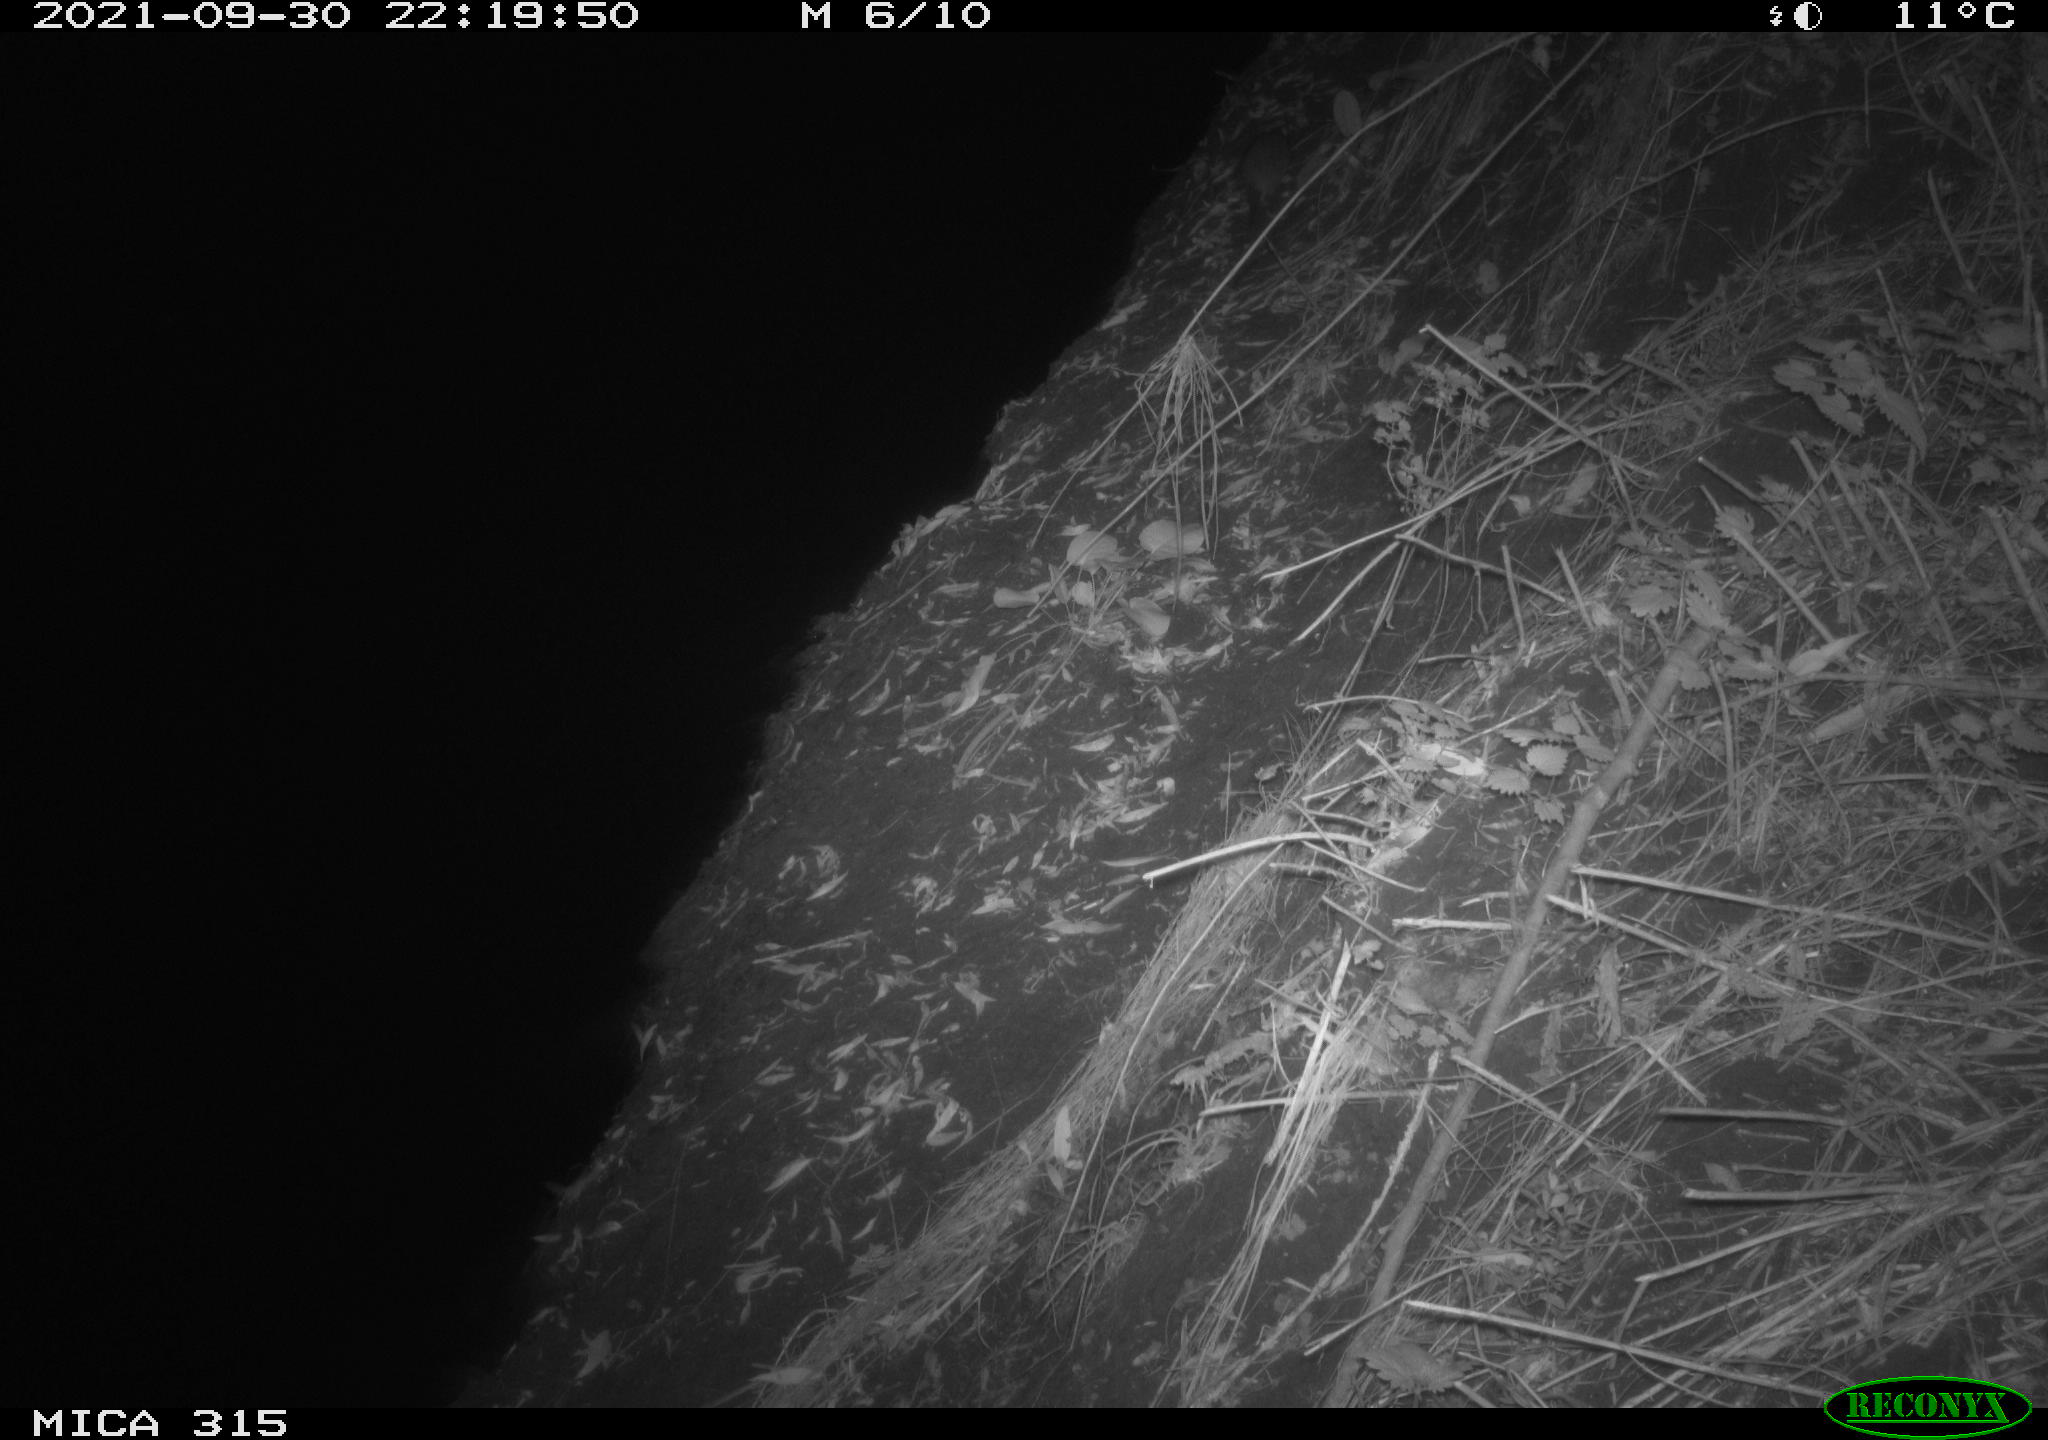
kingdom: Animalia
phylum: Chordata
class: Mammalia
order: Rodentia
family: Muridae
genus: Rattus
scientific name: Rattus norvegicus
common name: Brown rat
